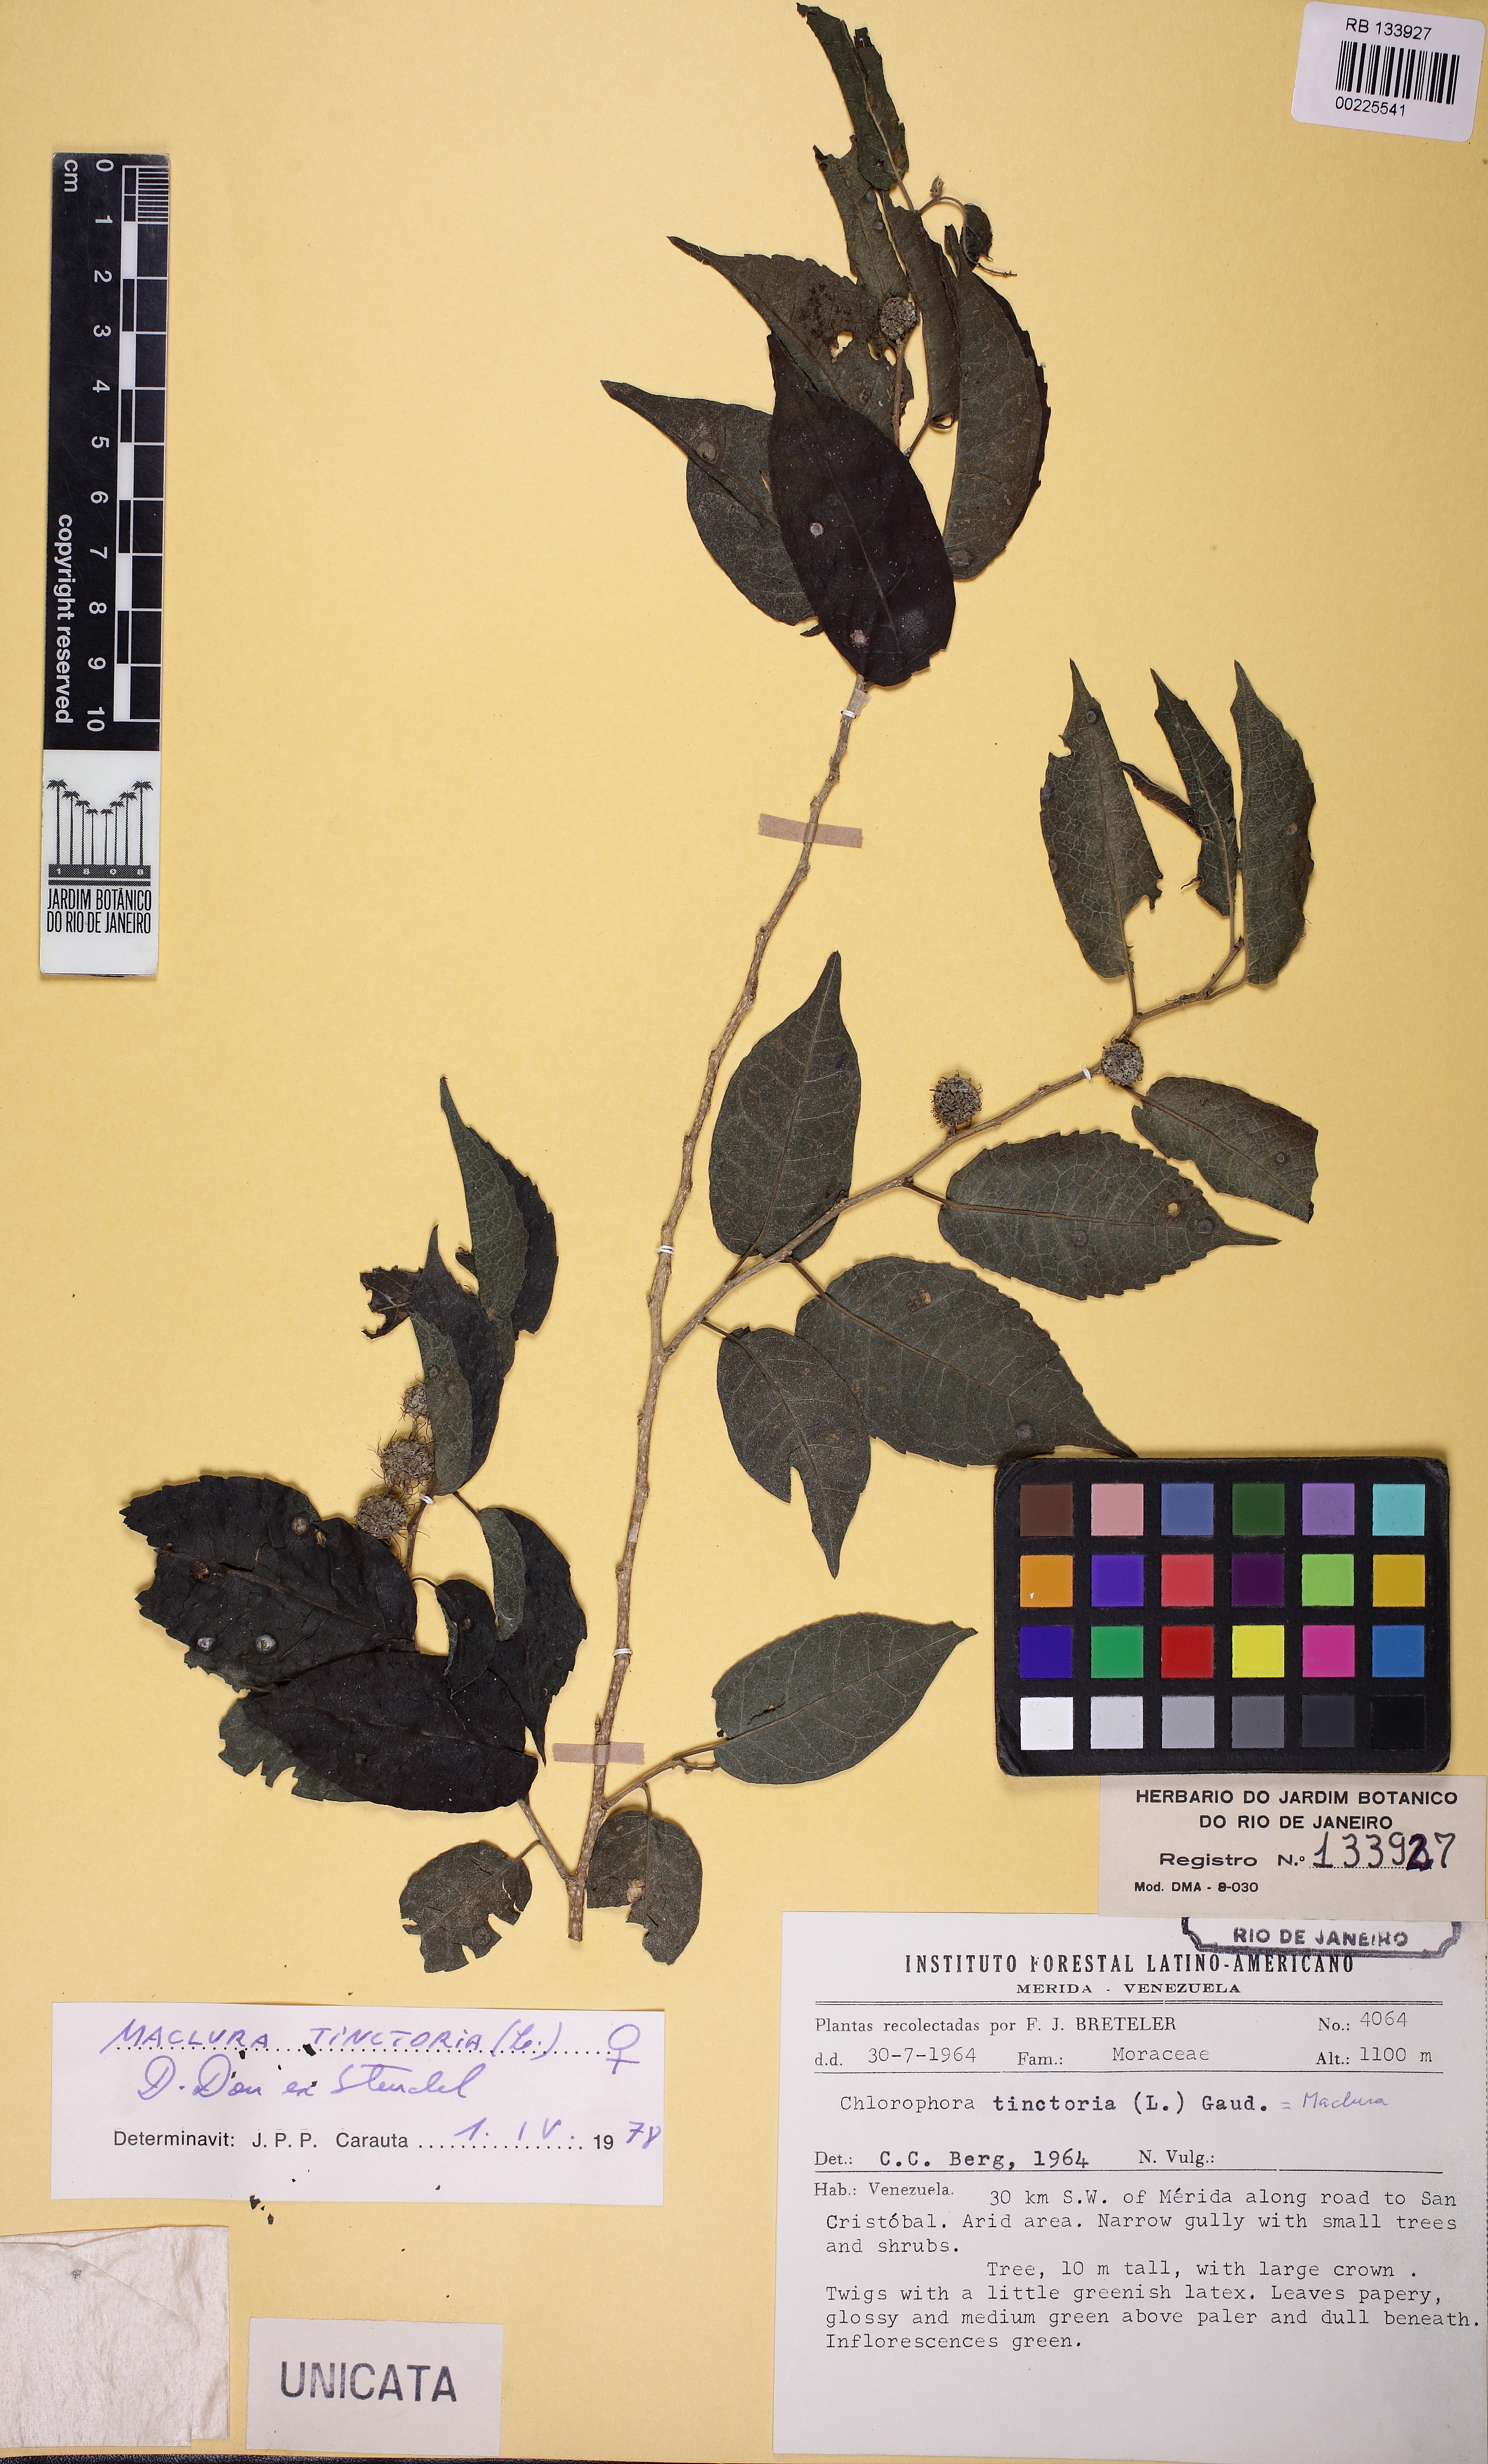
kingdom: Plantae
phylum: Tracheophyta
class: Magnoliopsida
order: Rosales
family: Moraceae
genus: Maclura
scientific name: Maclura tinctoria
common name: Old fustic
